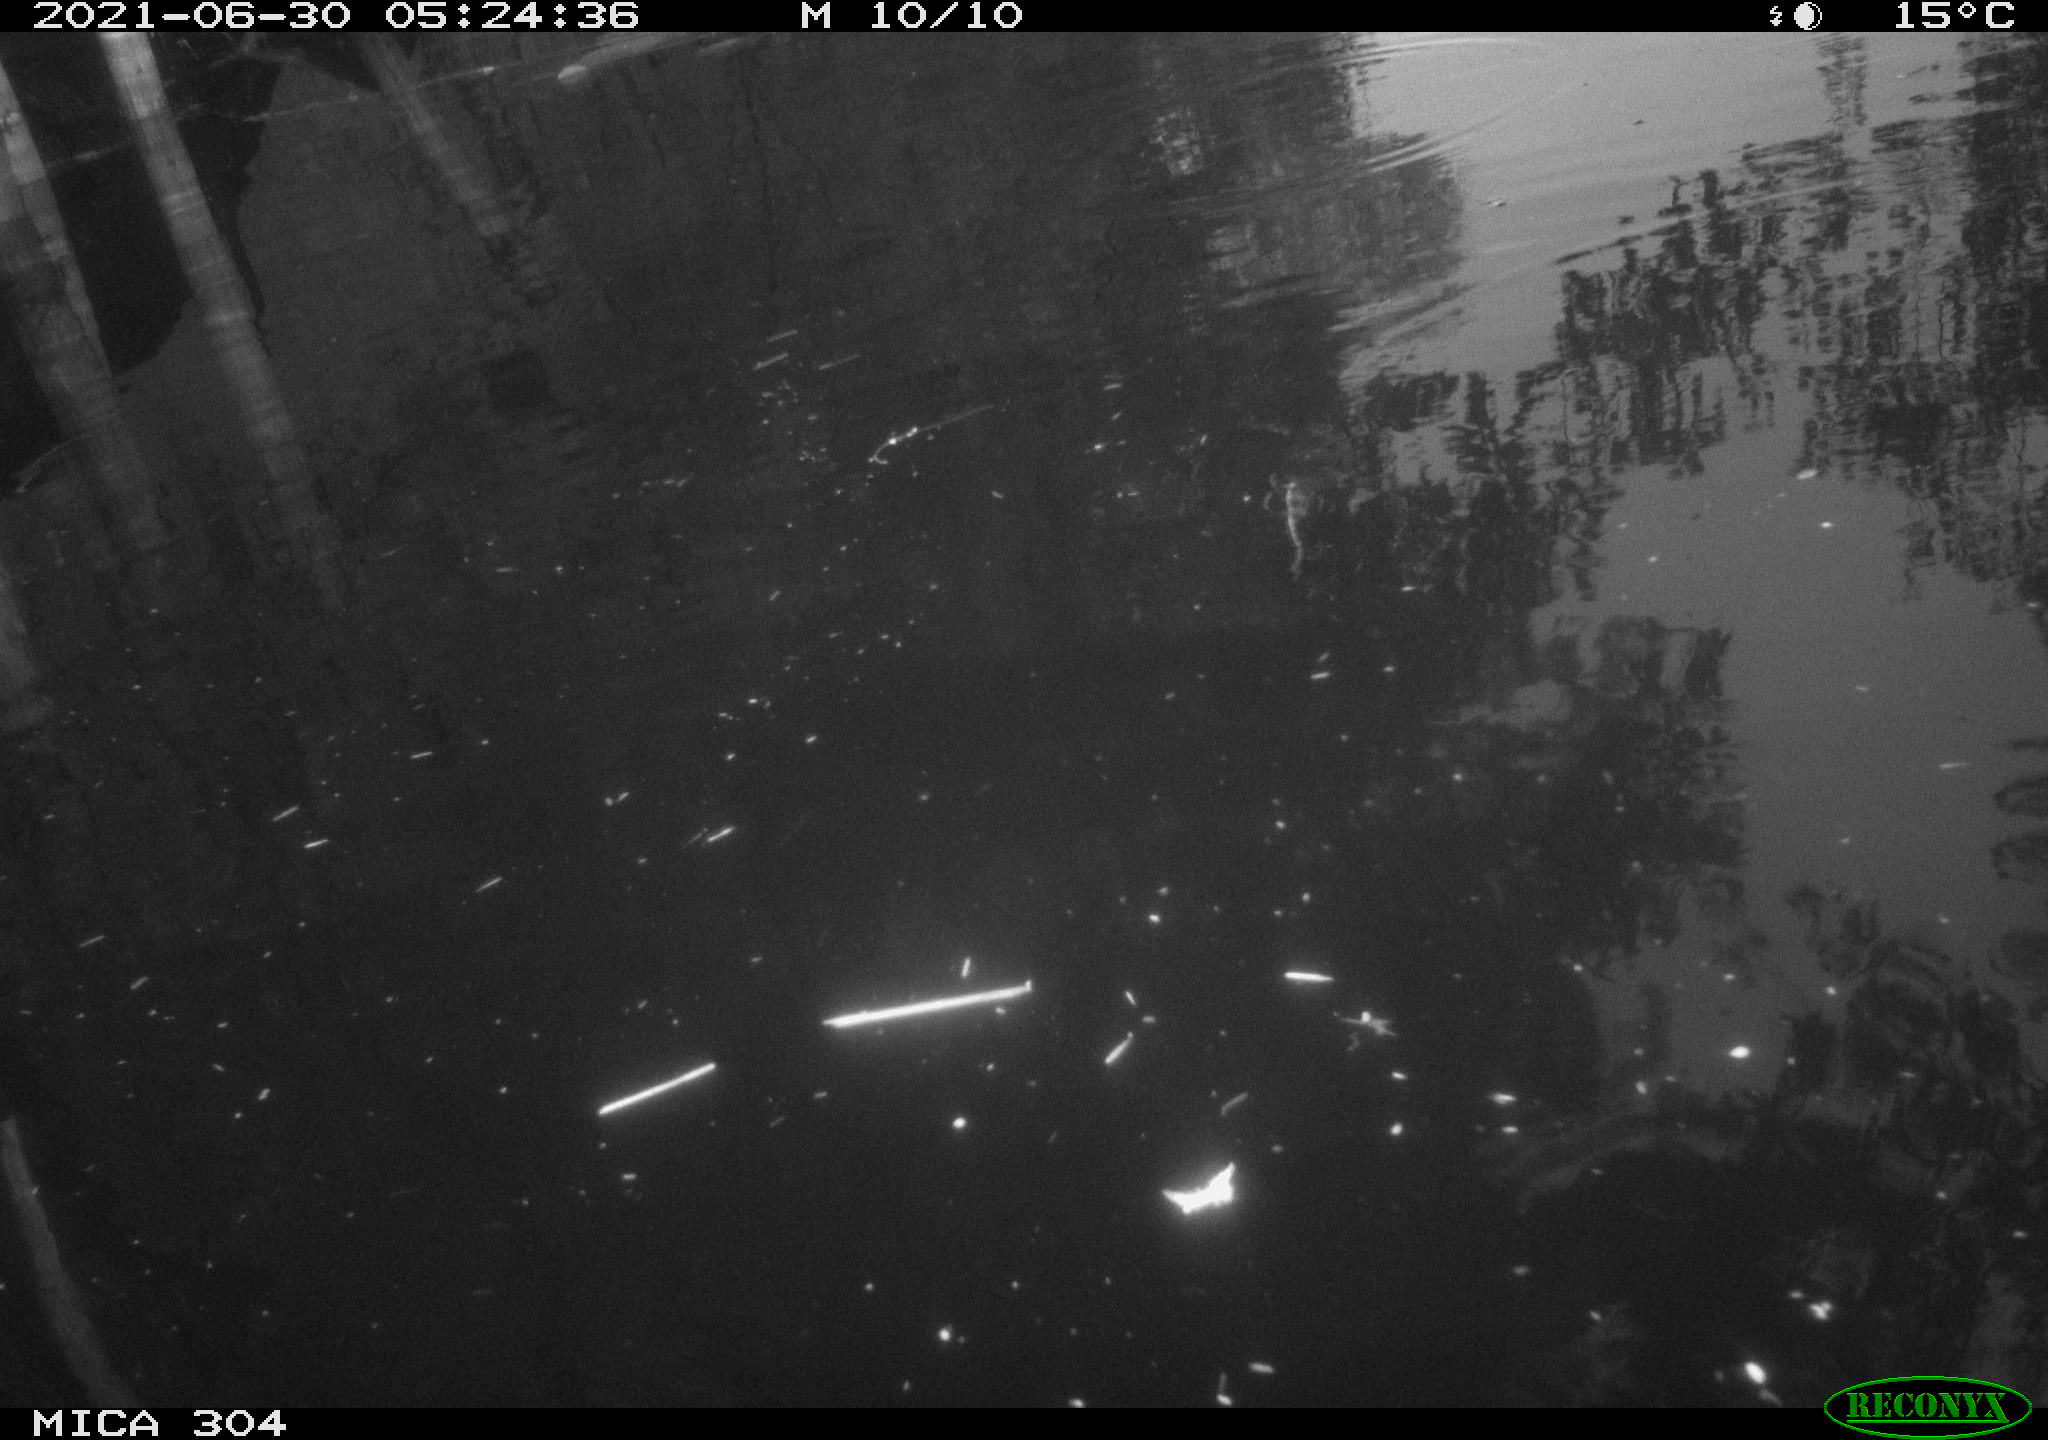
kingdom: Animalia
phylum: Chordata
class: Aves
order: Anseriformes
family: Anatidae
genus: Mareca
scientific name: Mareca strepera
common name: Gadwall
